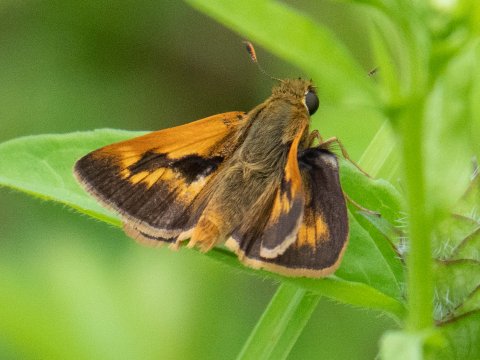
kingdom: Animalia
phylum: Arthropoda
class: Insecta
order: Lepidoptera
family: Hesperiidae
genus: Polites
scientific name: Polites
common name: Long Dash Skipper
